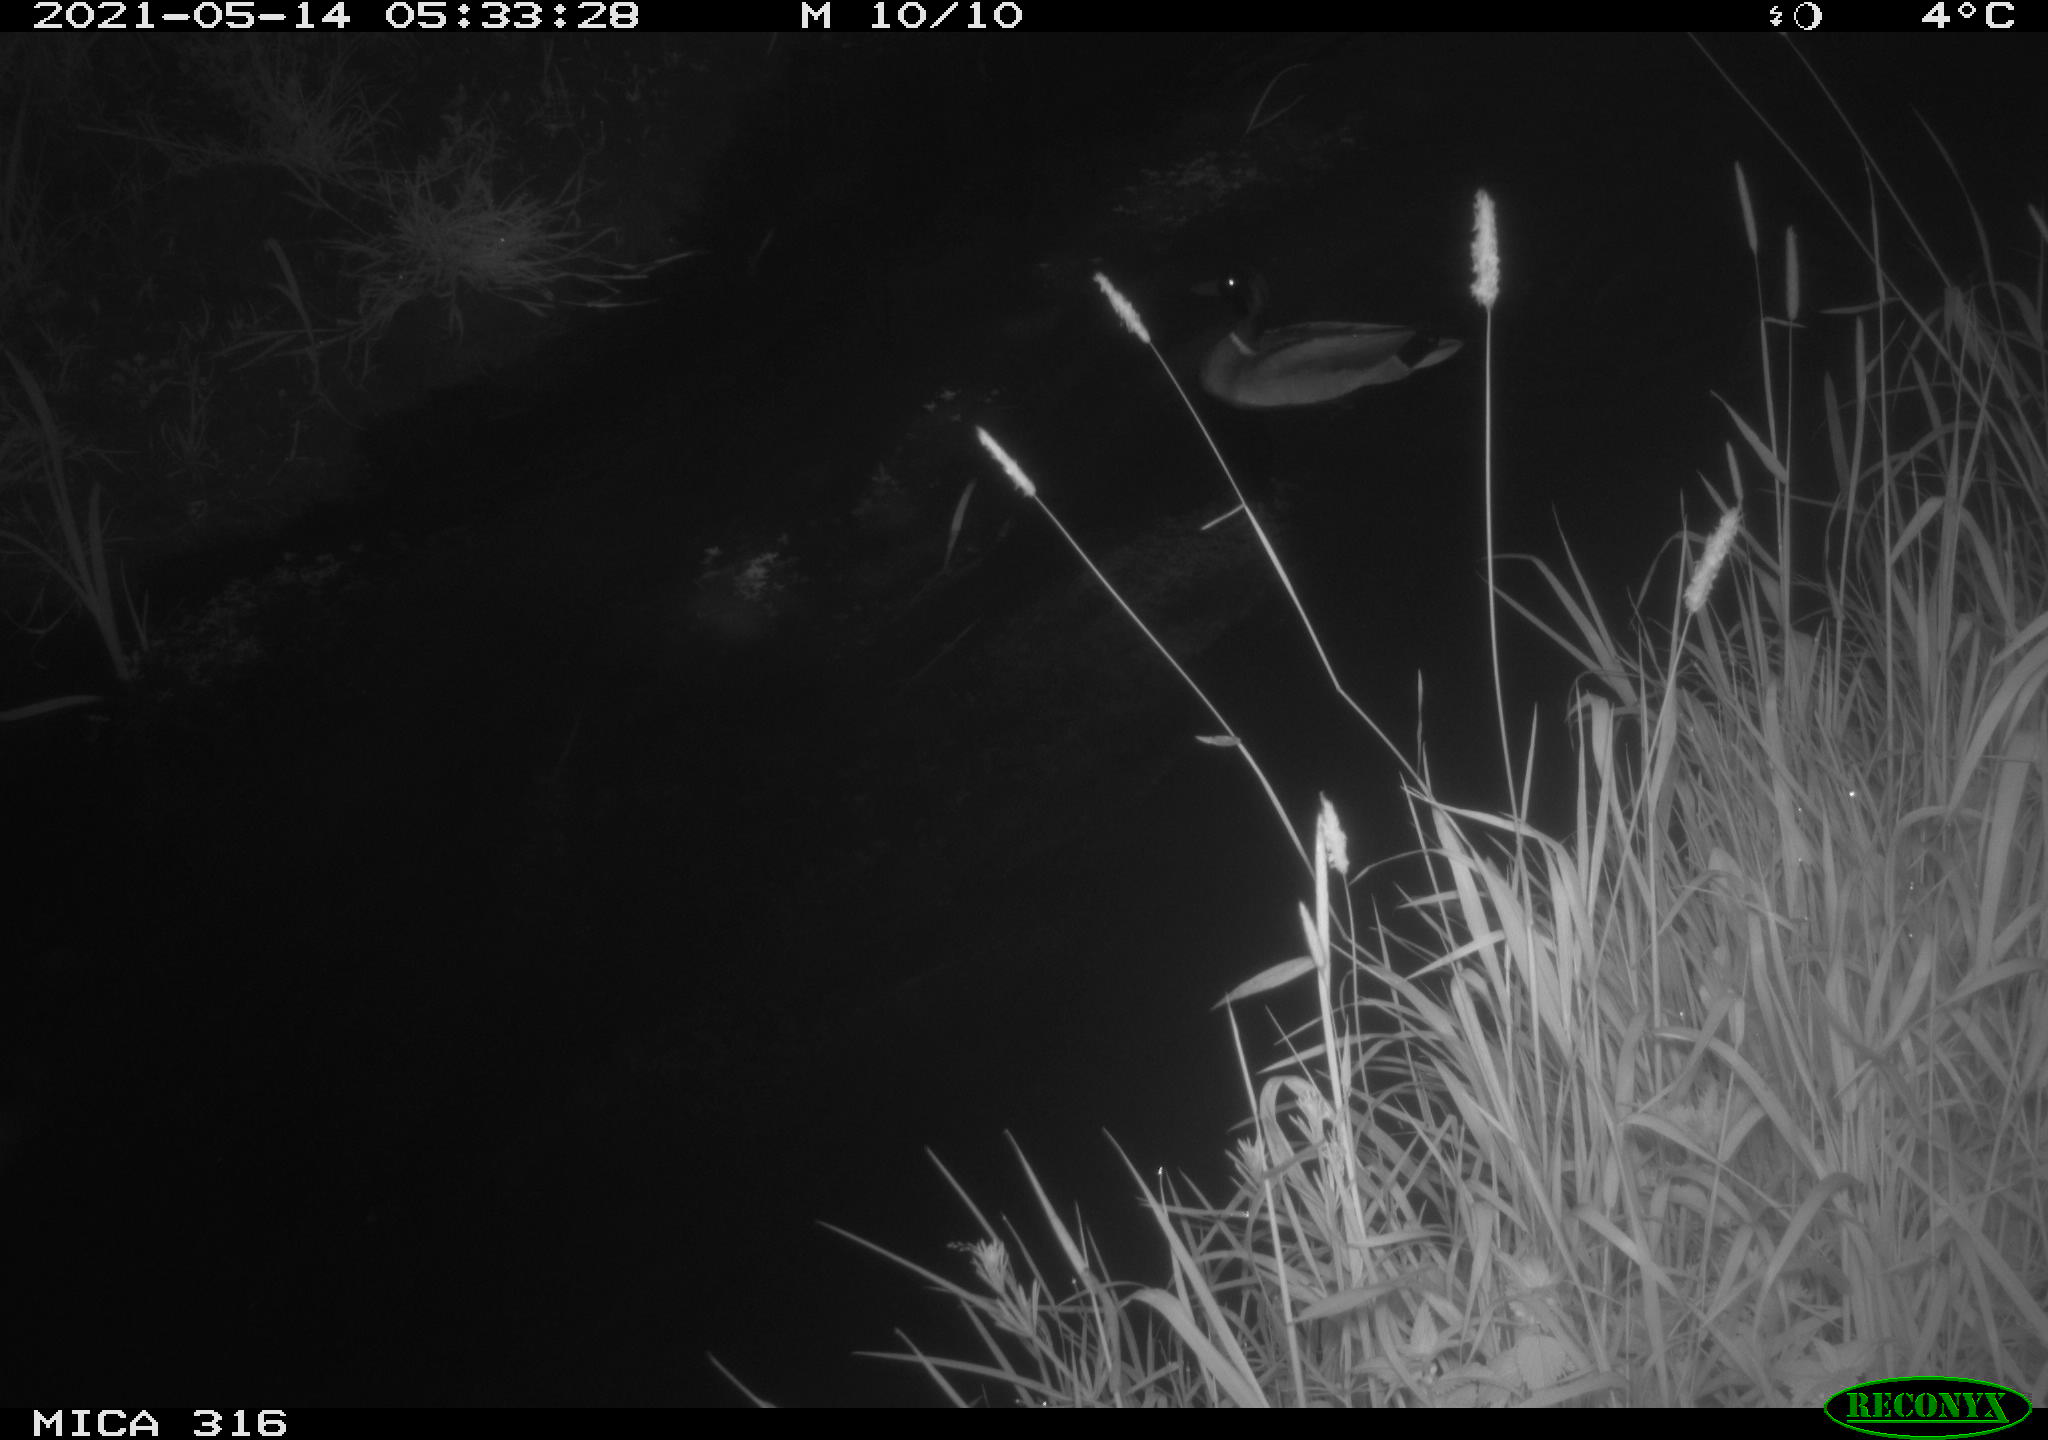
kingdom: Animalia
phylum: Chordata
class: Aves
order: Anseriformes
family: Anatidae
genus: Anas
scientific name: Anas platyrhynchos
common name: Mallard
